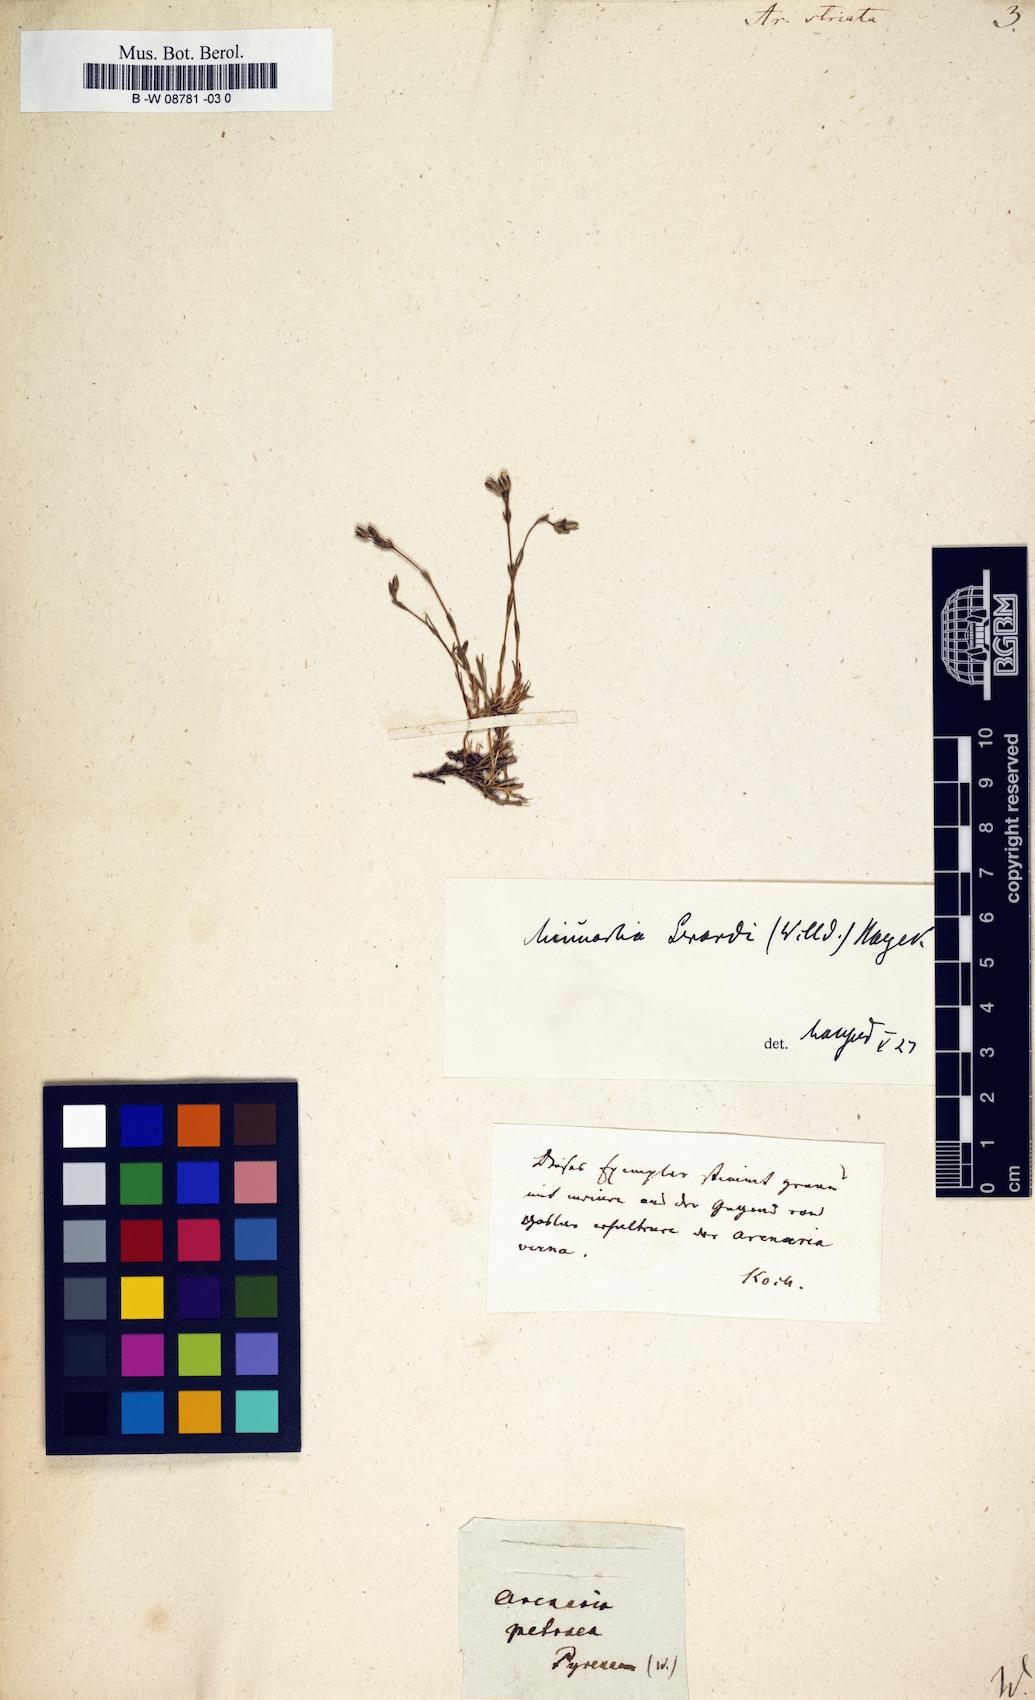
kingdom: Plantae
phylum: Tracheophyta
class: Magnoliopsida
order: Caryophyllales
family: Caryophyllaceae
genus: Cherleria
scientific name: Cherleria laricifolia
